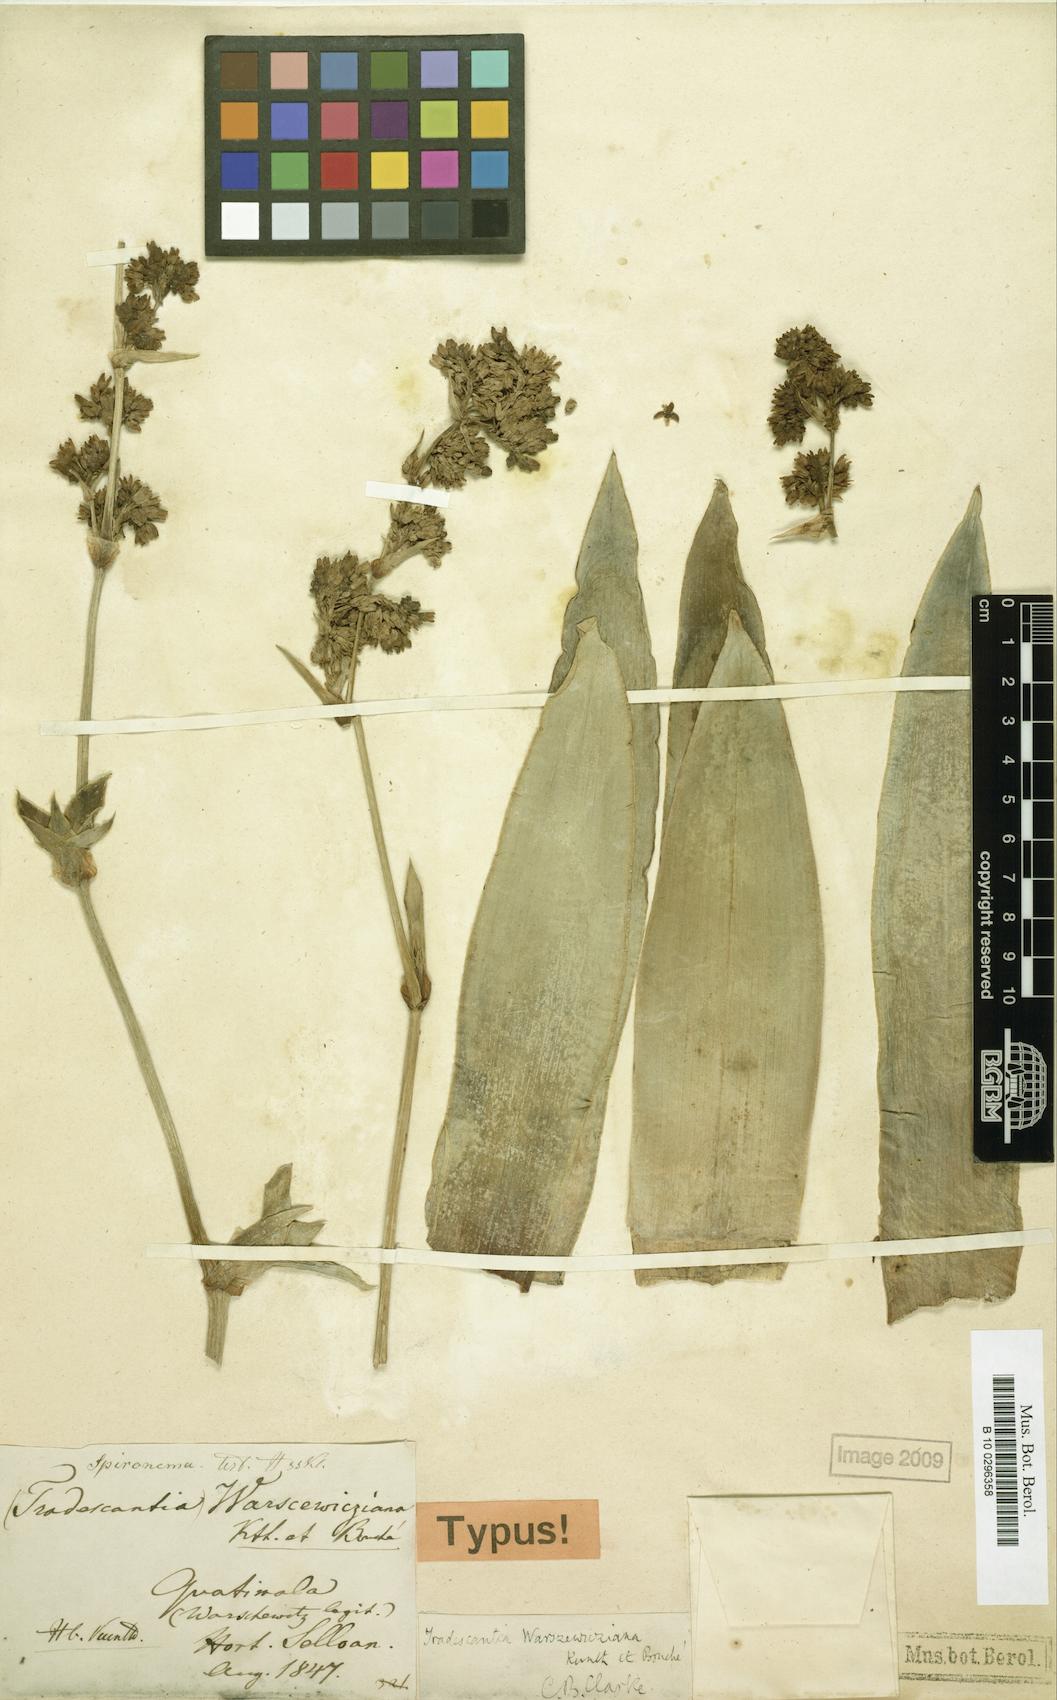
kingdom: Plantae
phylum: Tracheophyta
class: Liliopsida
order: Commelinales
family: Commelinaceae
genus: Callisia
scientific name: Callisia warszewicziana
